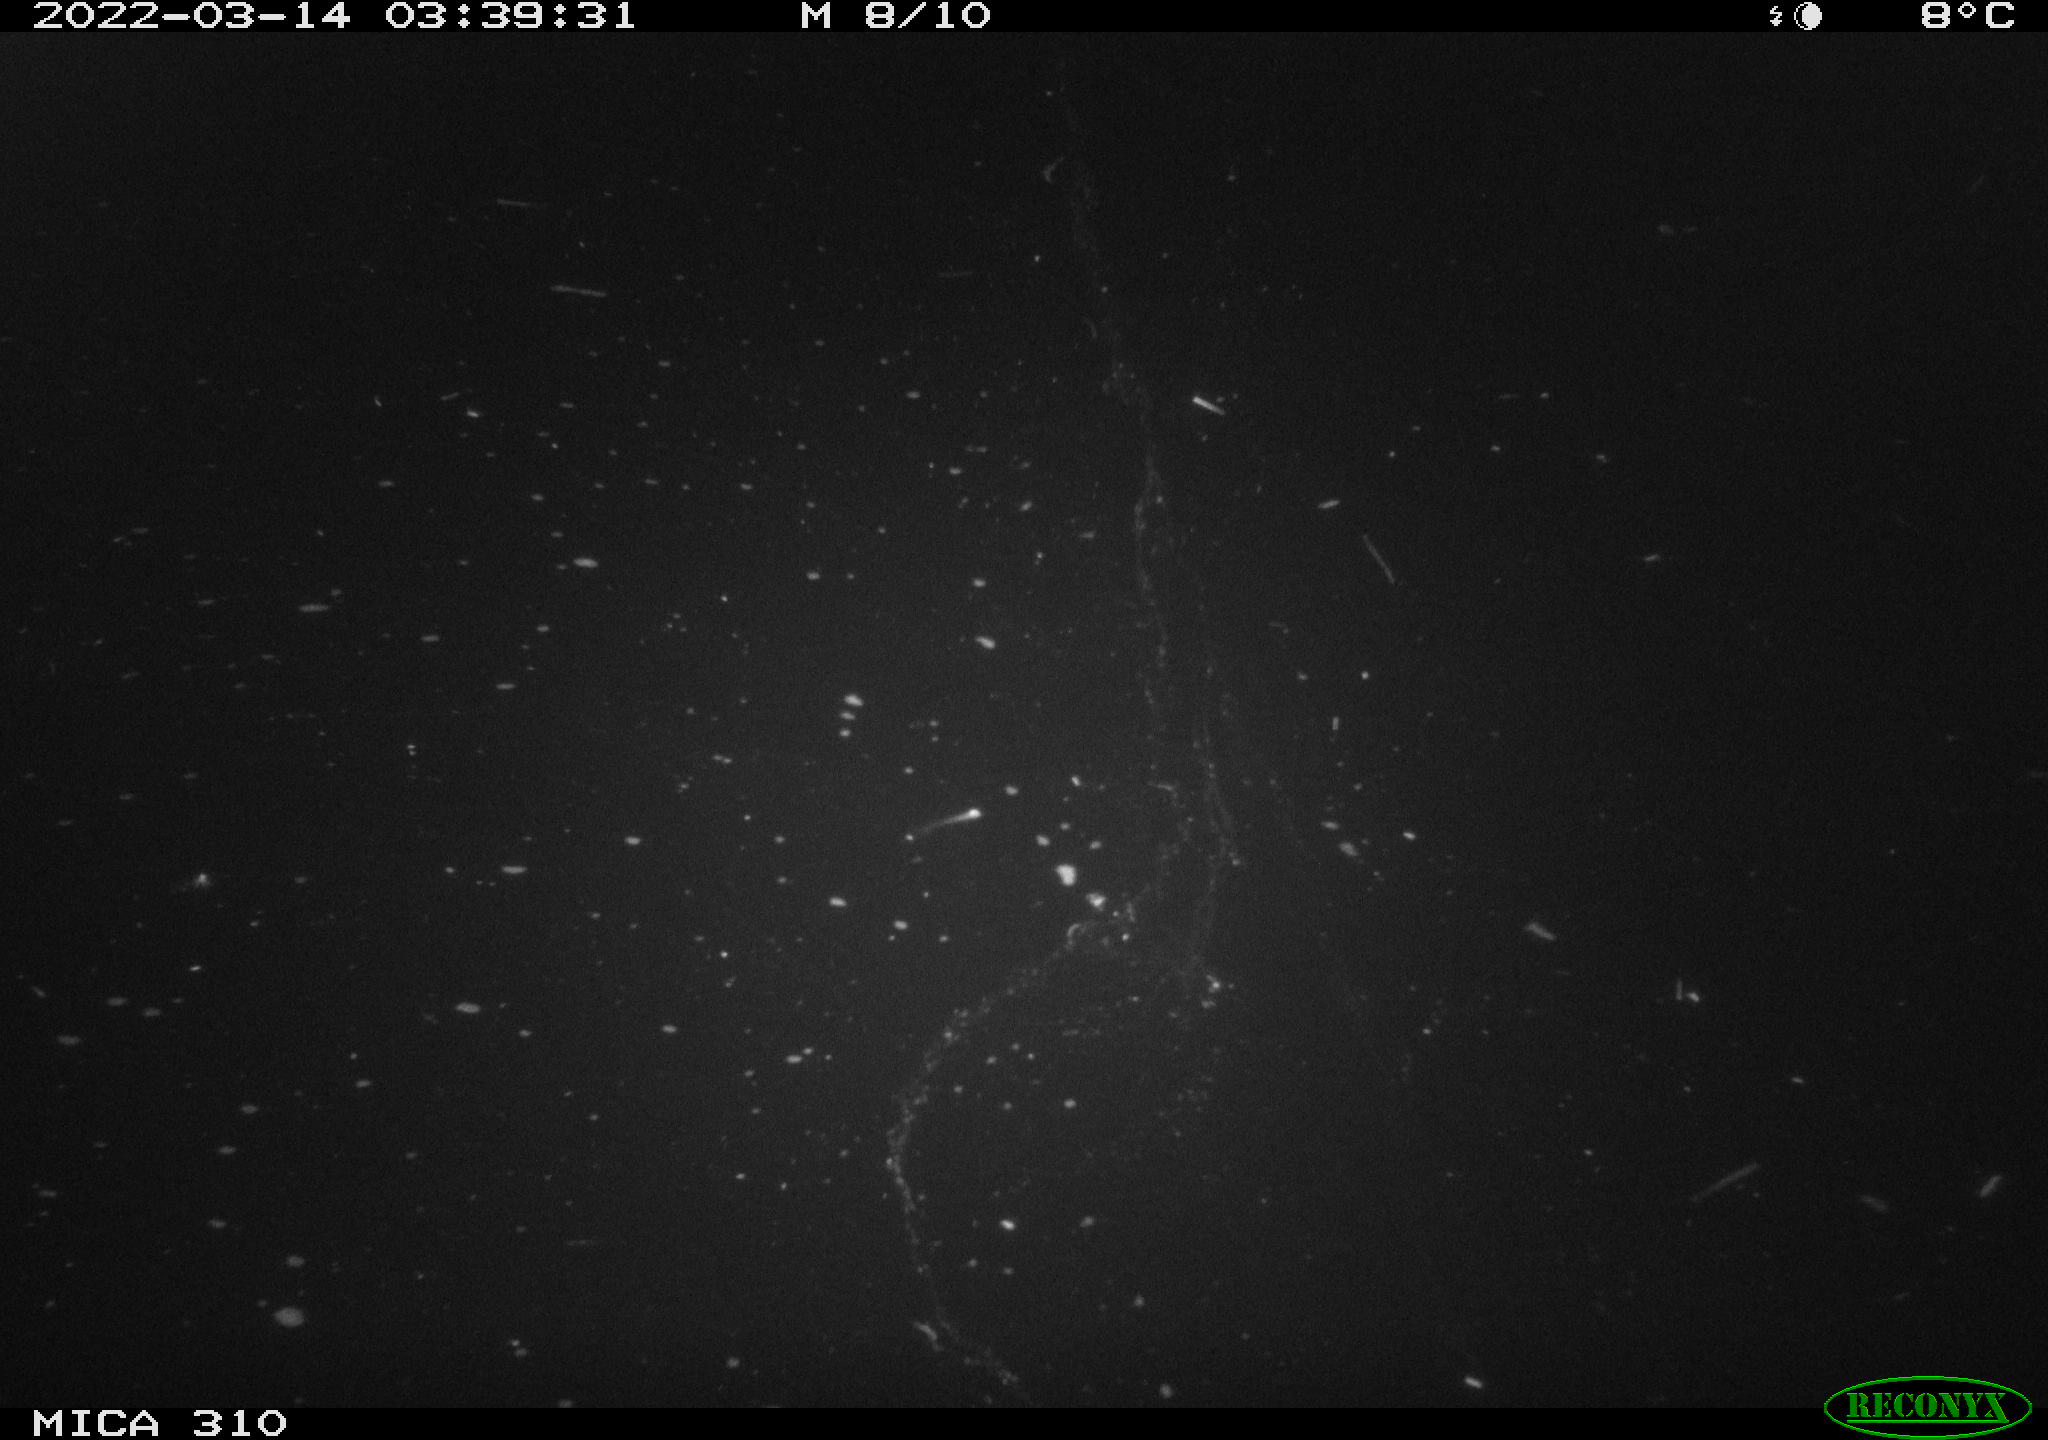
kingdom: Animalia
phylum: Chordata
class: Aves
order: Anseriformes
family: Anatidae
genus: Anas
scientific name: Anas platyrhynchos
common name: Mallard
